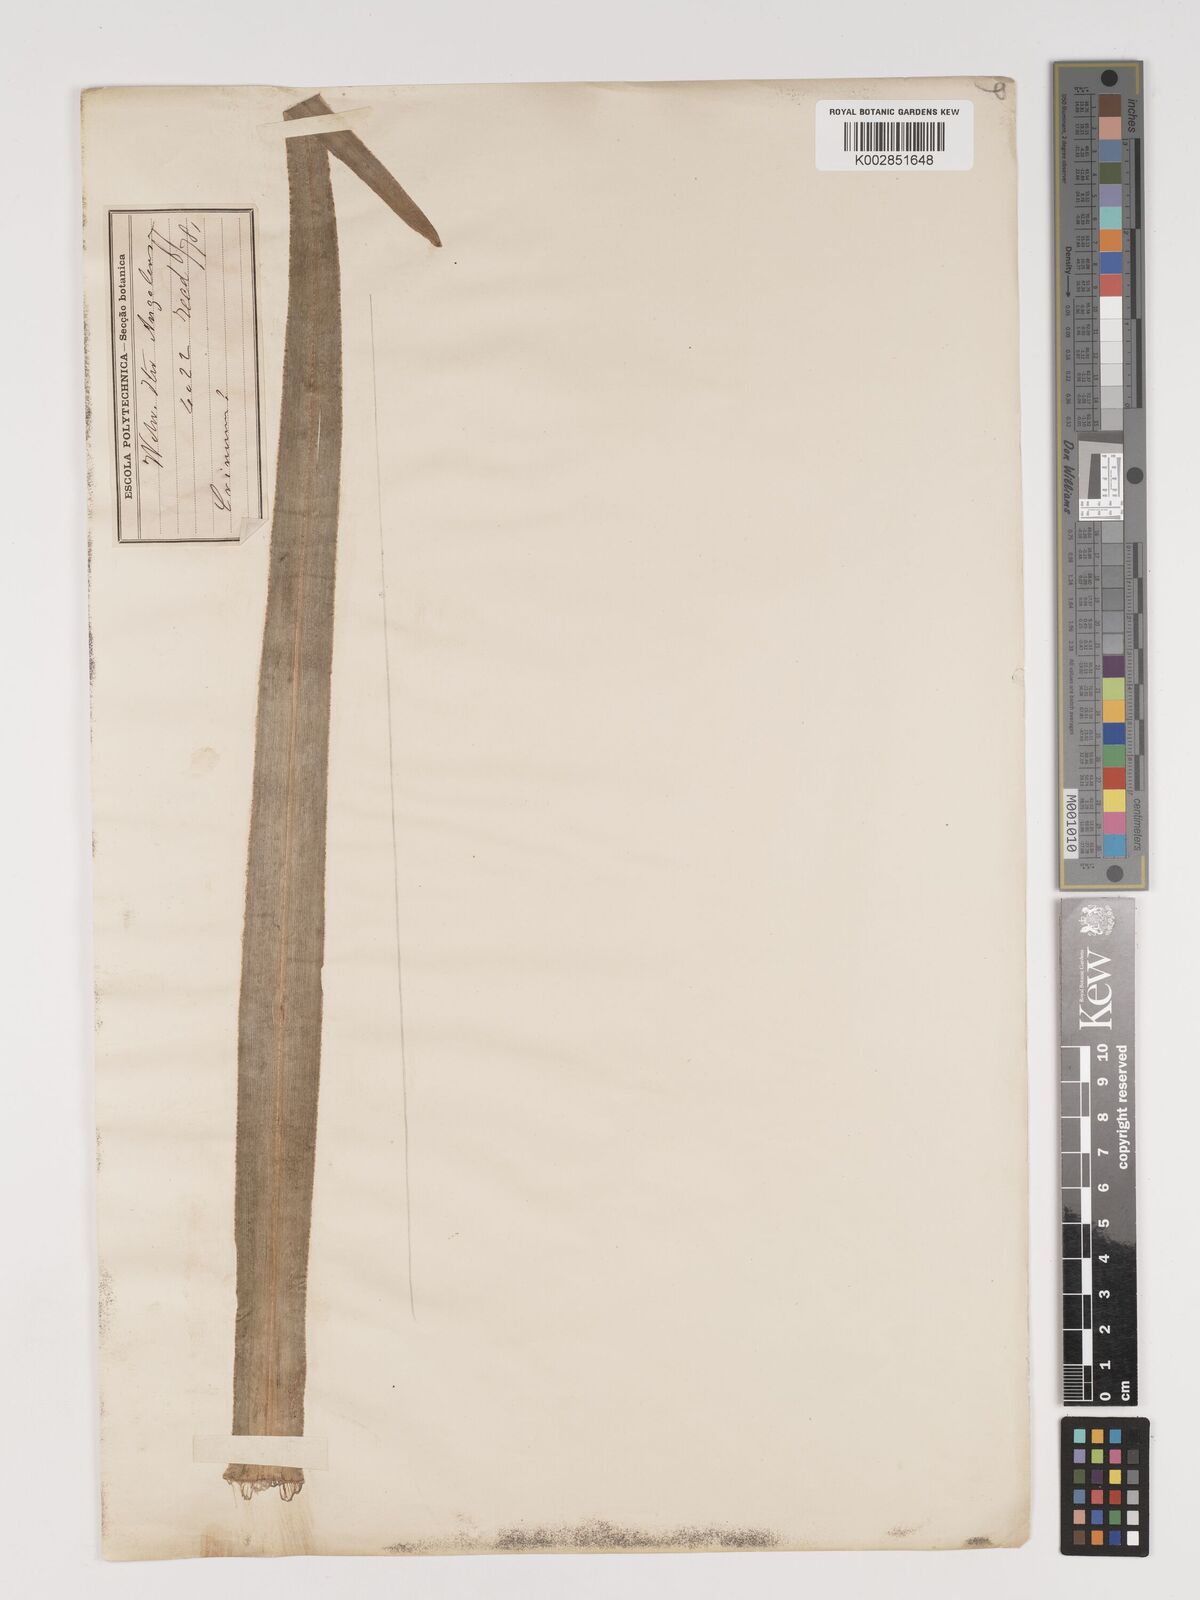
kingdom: Plantae
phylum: Tracheophyta
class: Liliopsida
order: Asparagales
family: Amaryllidaceae
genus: Crinum
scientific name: Crinum nordaliae
